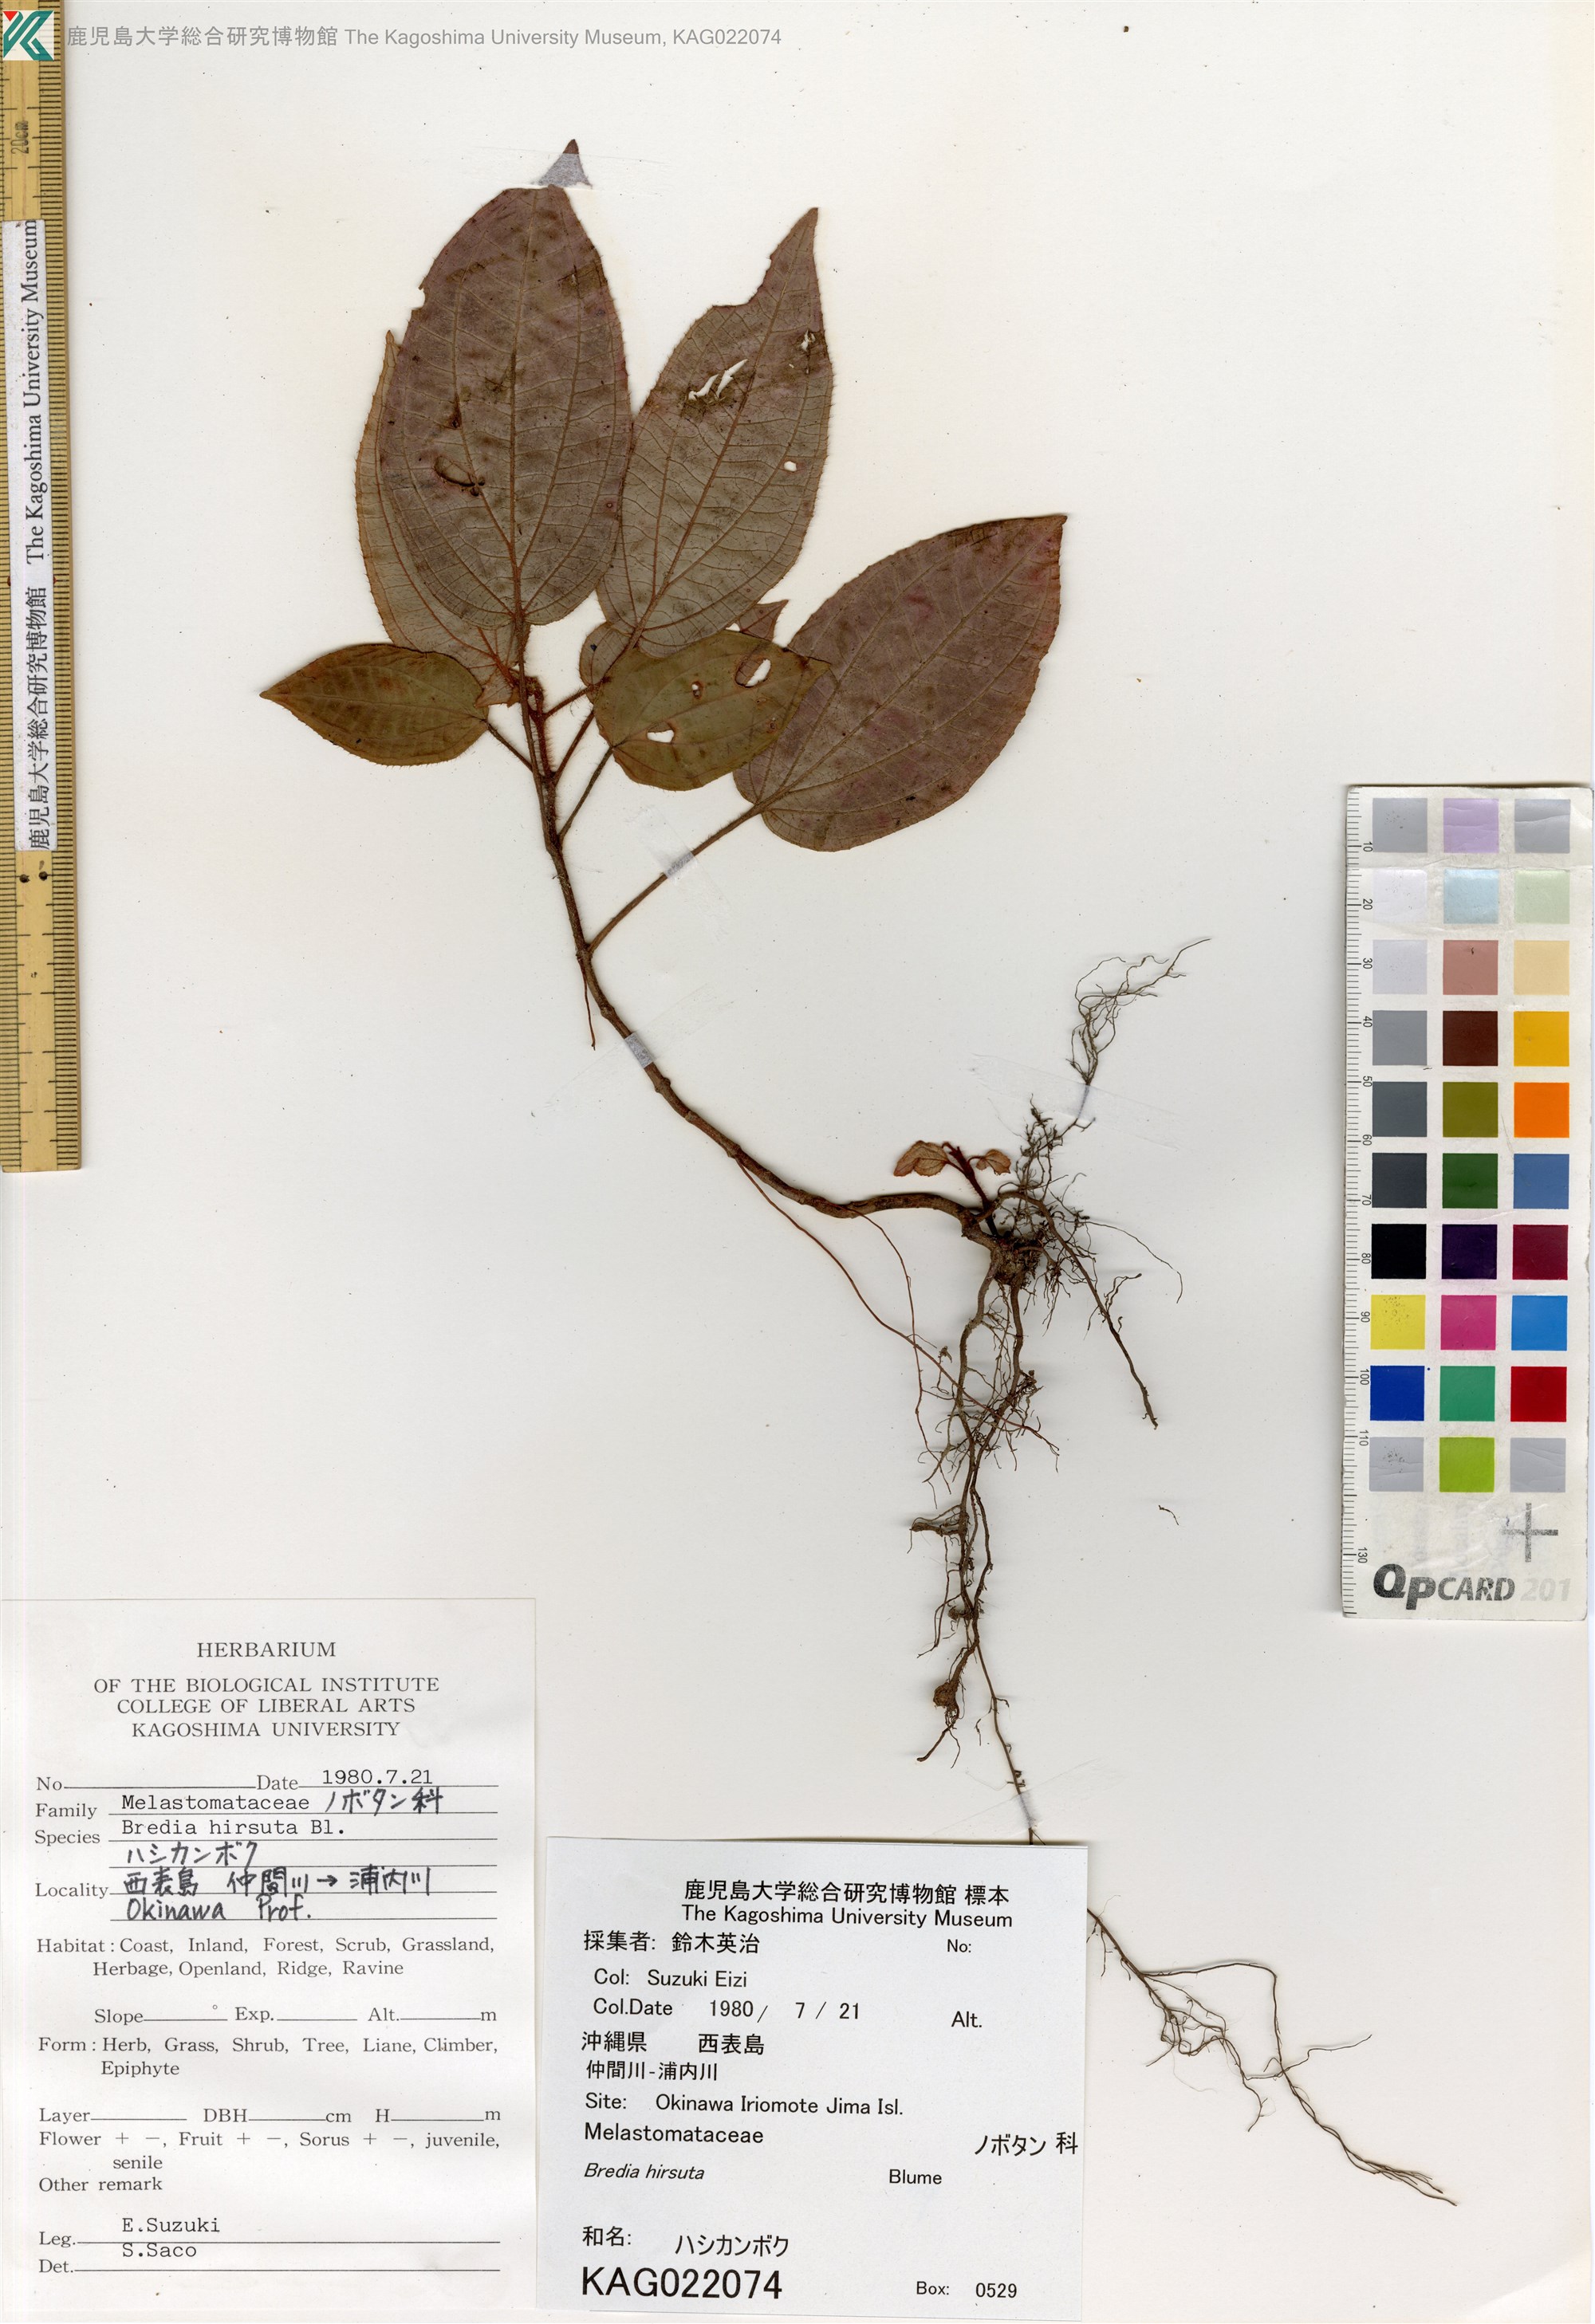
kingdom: Plantae
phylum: Tracheophyta
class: Magnoliopsida
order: Myrtales
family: Melastomataceae
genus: Bredia
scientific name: Bredia hirsuta
